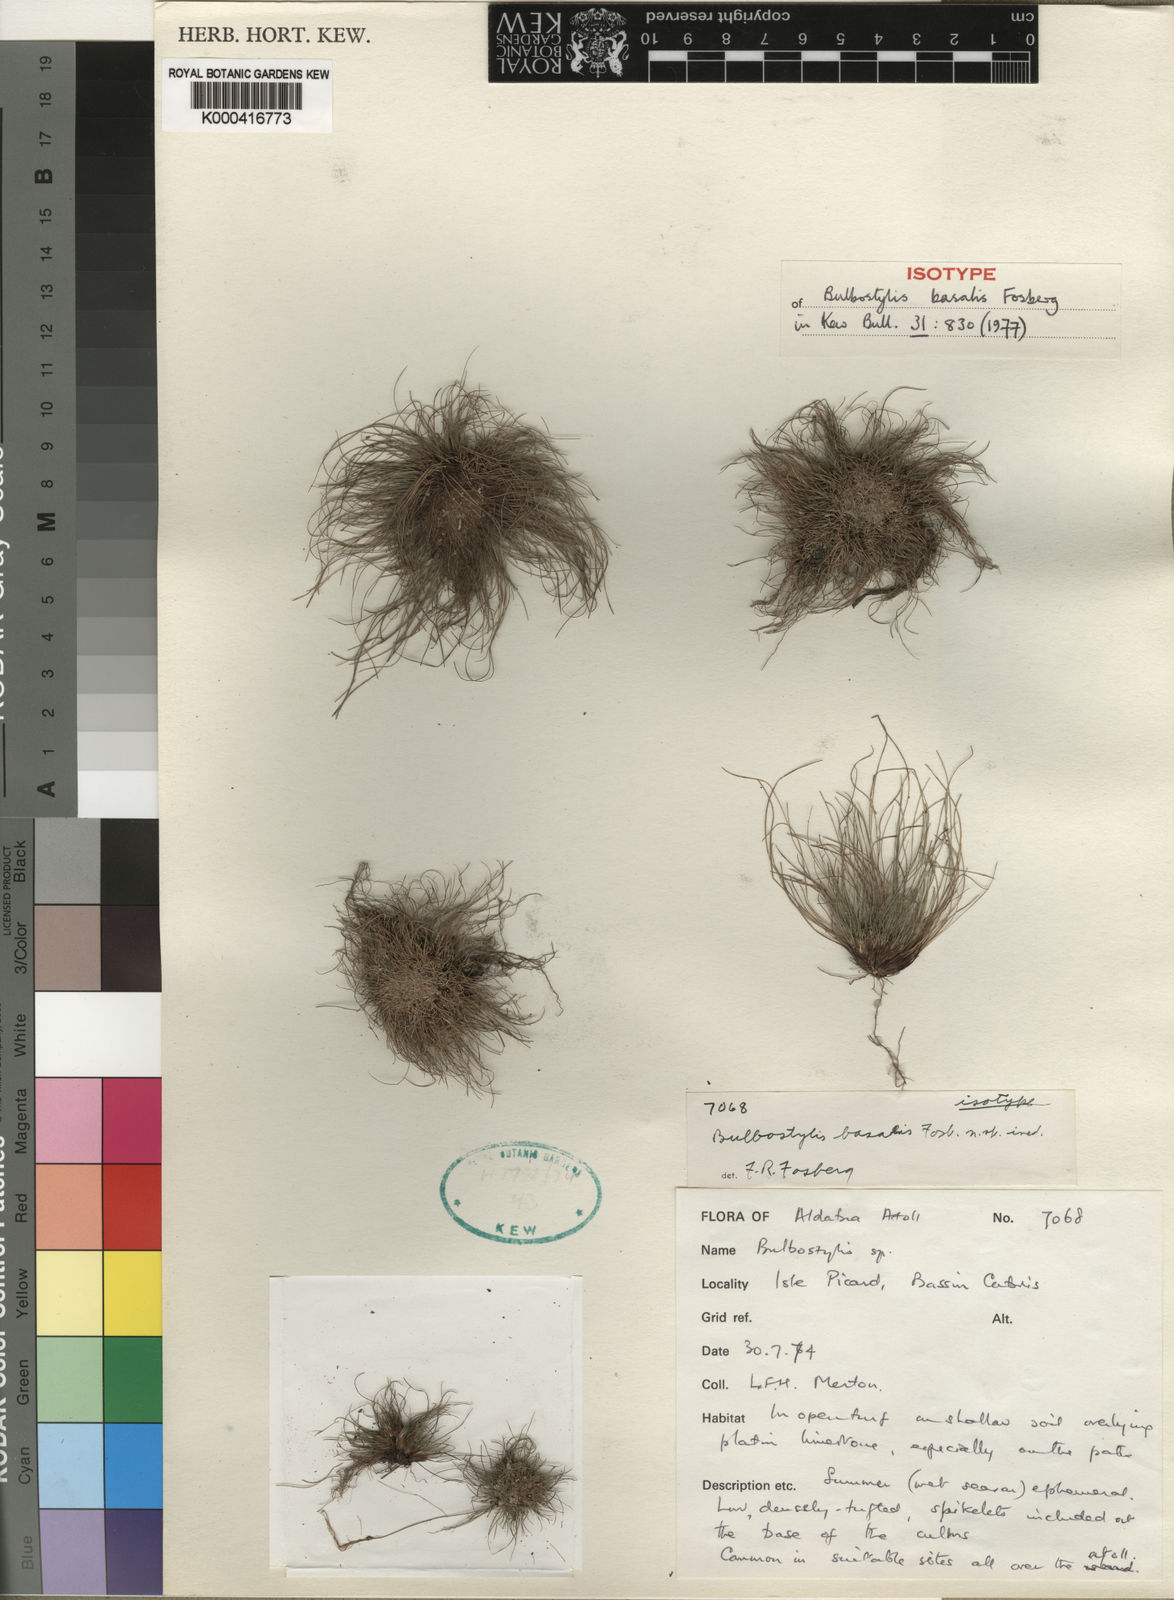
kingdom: Plantae
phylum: Tracheophyta
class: Liliopsida
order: Poales
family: Cyperaceae
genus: Bulbostylis
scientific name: Bulbostylis basalis
